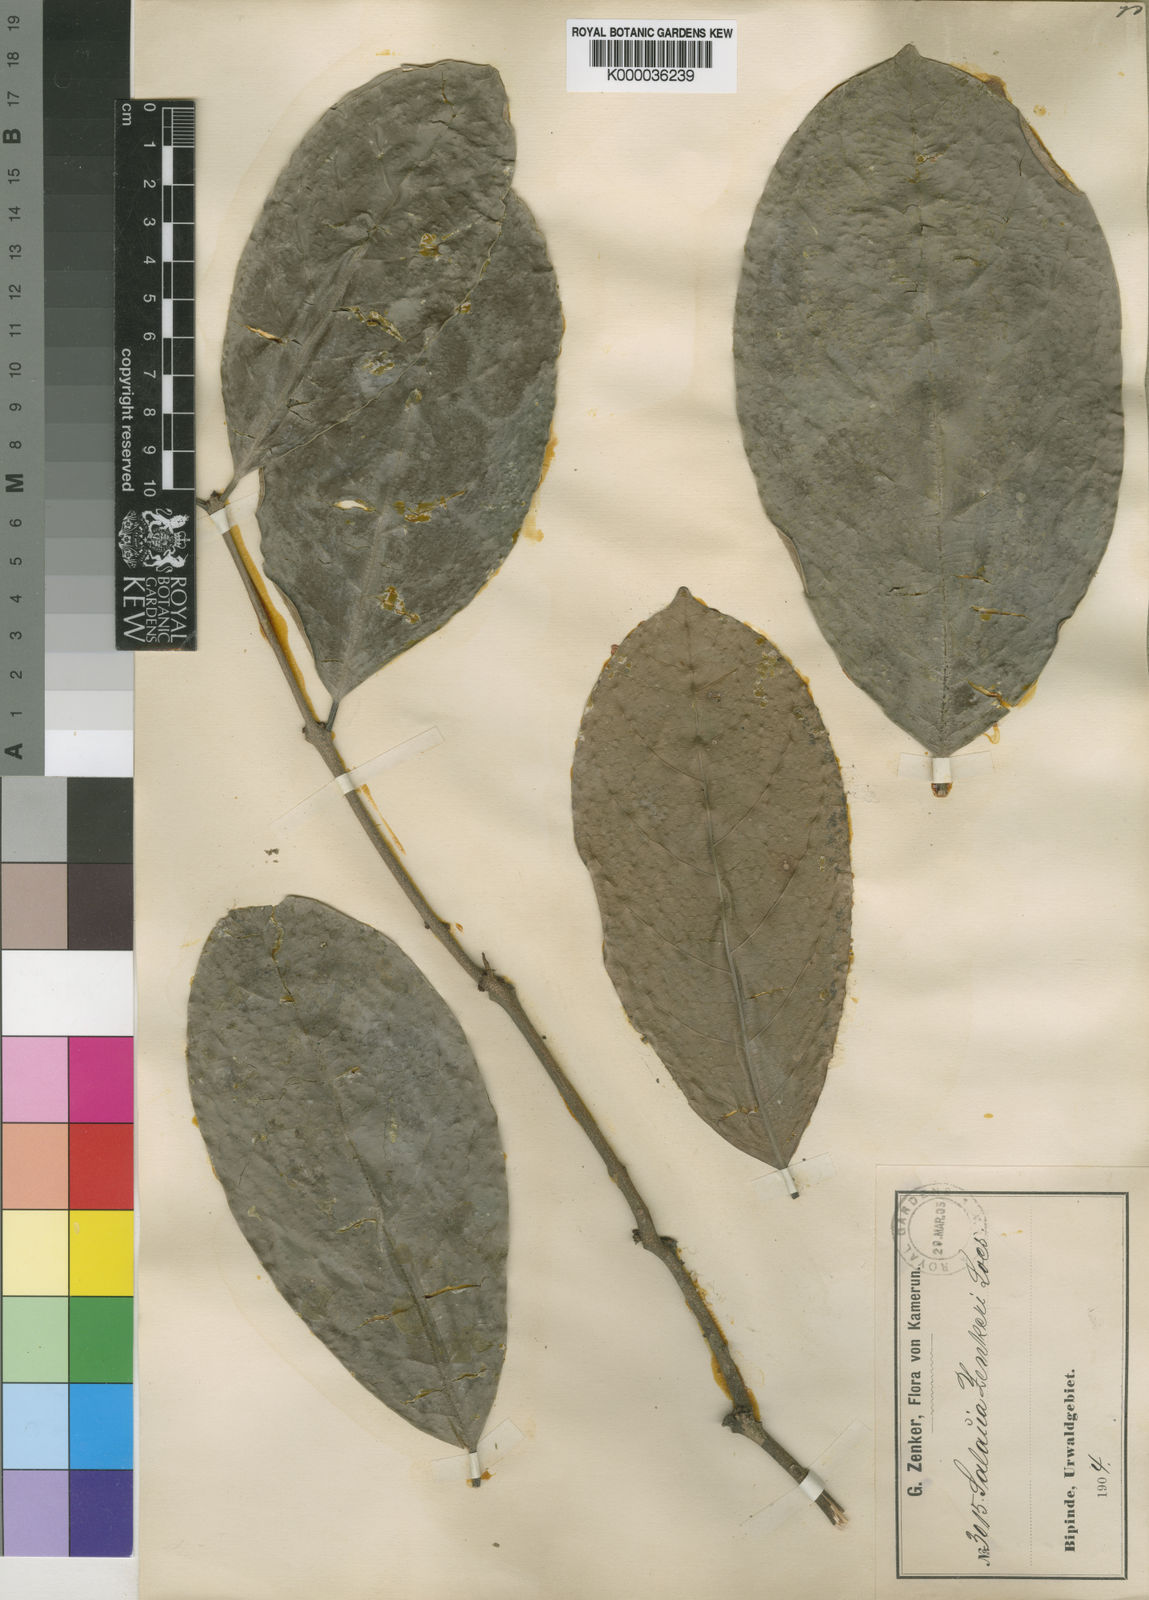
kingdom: Plantae
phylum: Tracheophyta
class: Magnoliopsida
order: Celastrales
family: Celastraceae
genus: Salacia
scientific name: Salacia zenkeri
